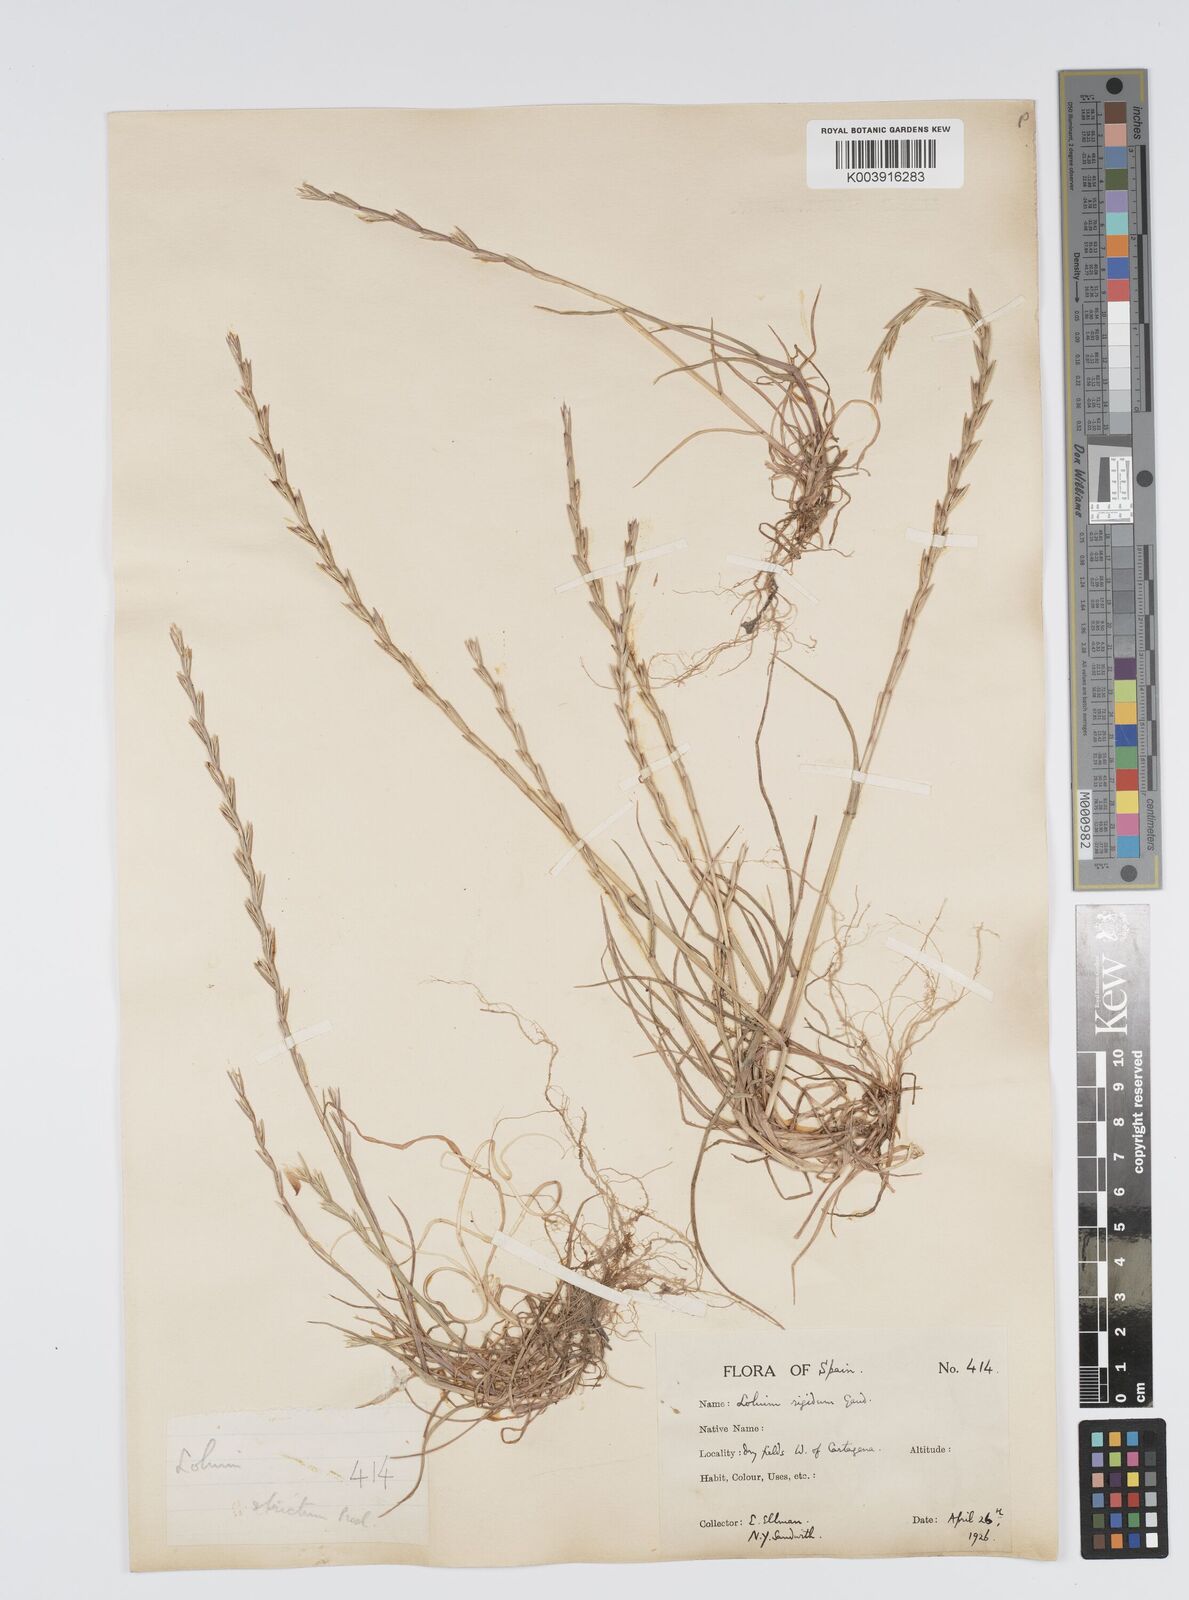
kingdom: Plantae
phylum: Tracheophyta
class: Liliopsida
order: Poales
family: Poaceae
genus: Lolium
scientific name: Lolium rigidum
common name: Wimmera ryegrass
